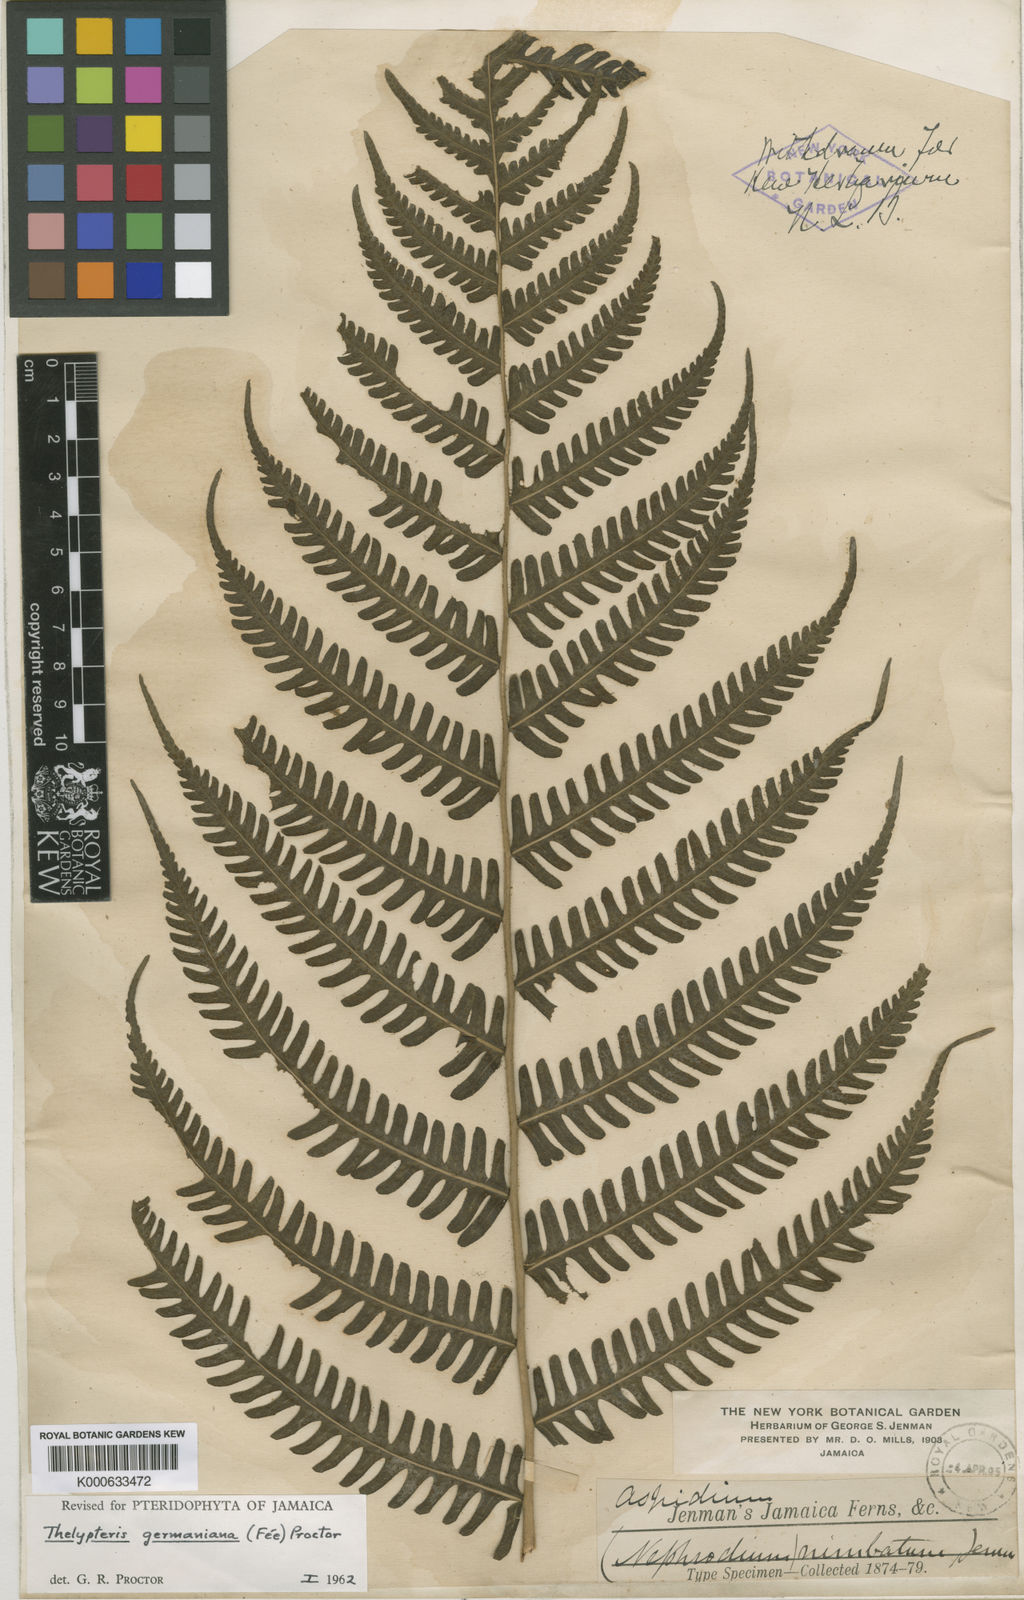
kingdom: Plantae
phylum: Tracheophyta
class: Polypodiopsida
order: Polypodiales
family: Thelypteridaceae
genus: Amauropelta
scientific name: Amauropelta
